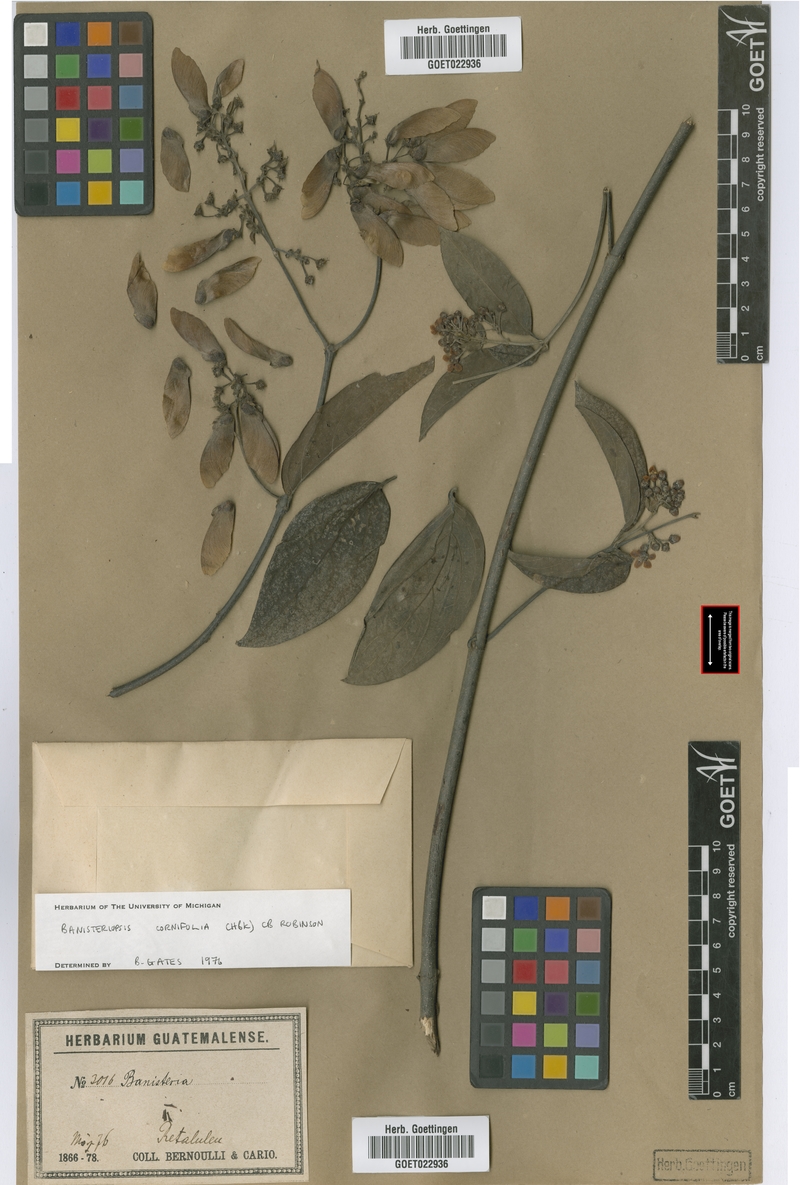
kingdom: Plantae
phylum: Tracheophyta
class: Magnoliopsida
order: Malpighiales
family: Malpighiaceae
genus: Bronwenia
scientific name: Bronwenia cornifolia
